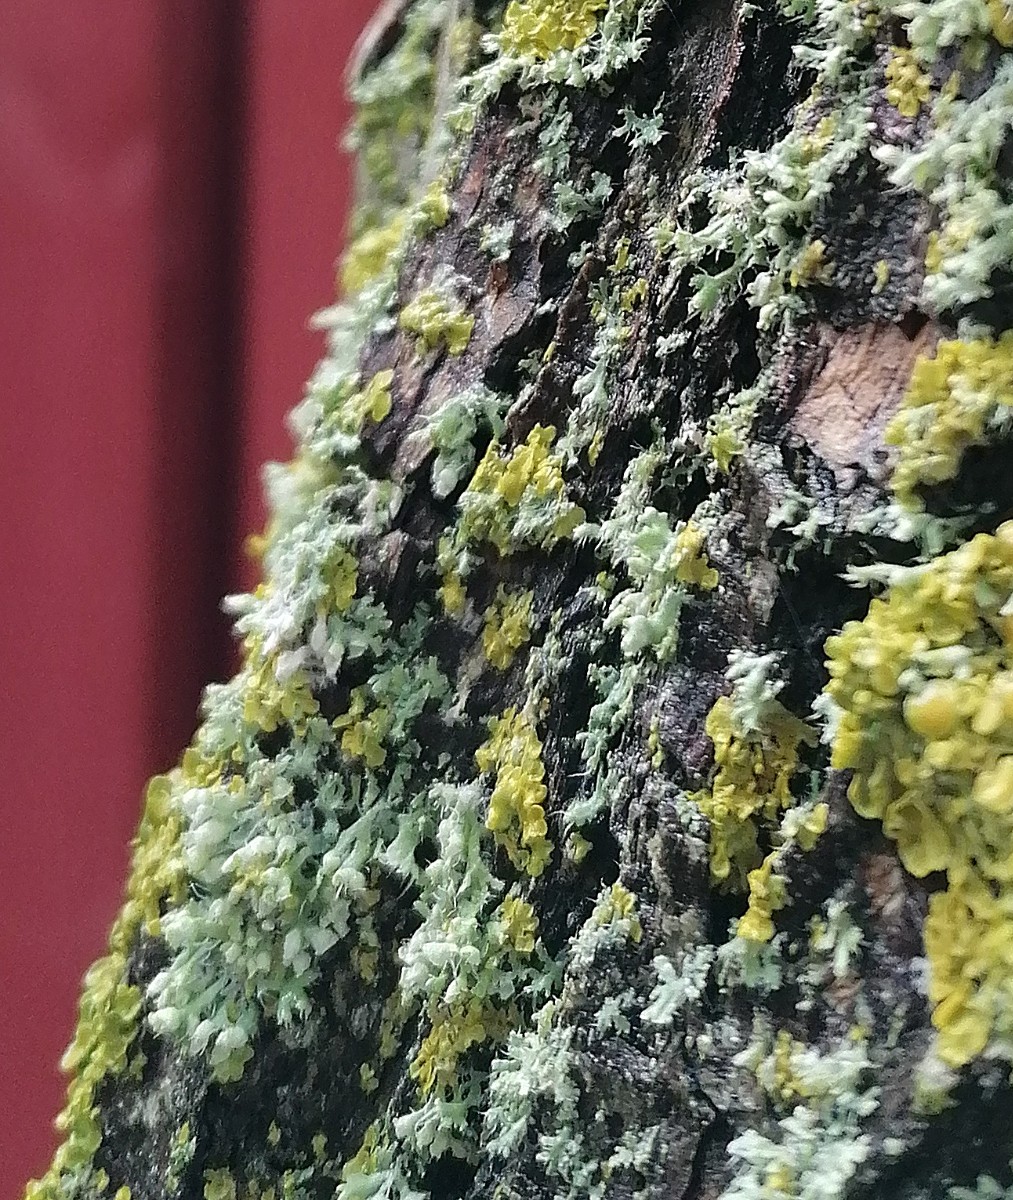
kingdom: Fungi
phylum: Ascomycota
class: Lecanoromycetes
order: Caliciales
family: Physciaceae
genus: Physcia
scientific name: Physcia adscendens
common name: hætte-rosetlav
